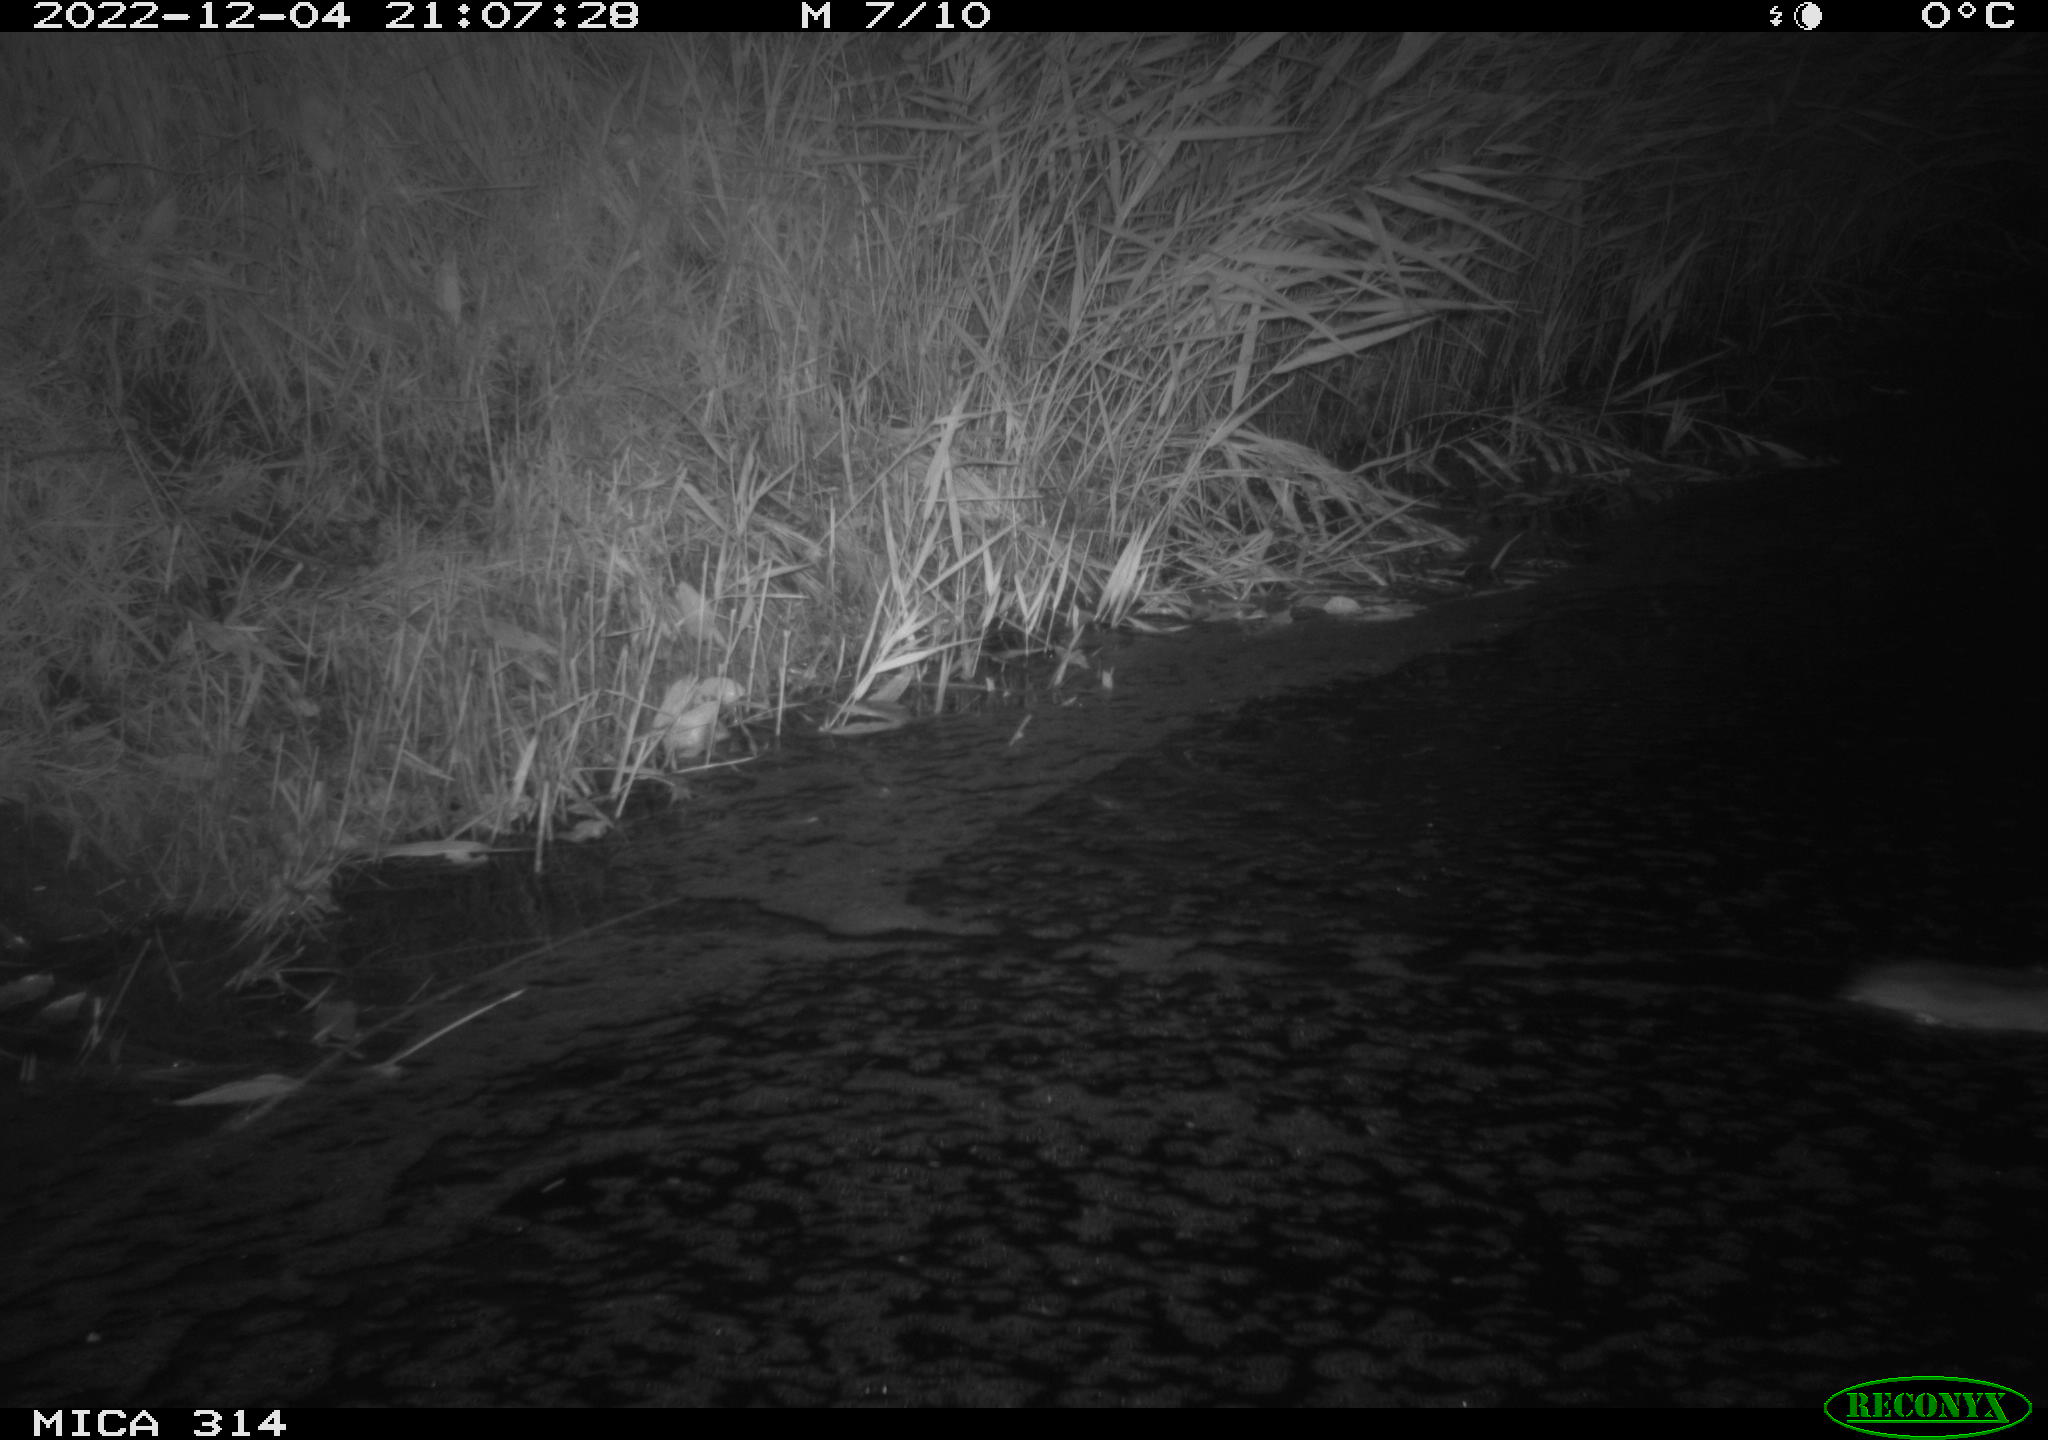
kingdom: Animalia
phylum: Chordata
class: Mammalia
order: Rodentia
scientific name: Rodentia
